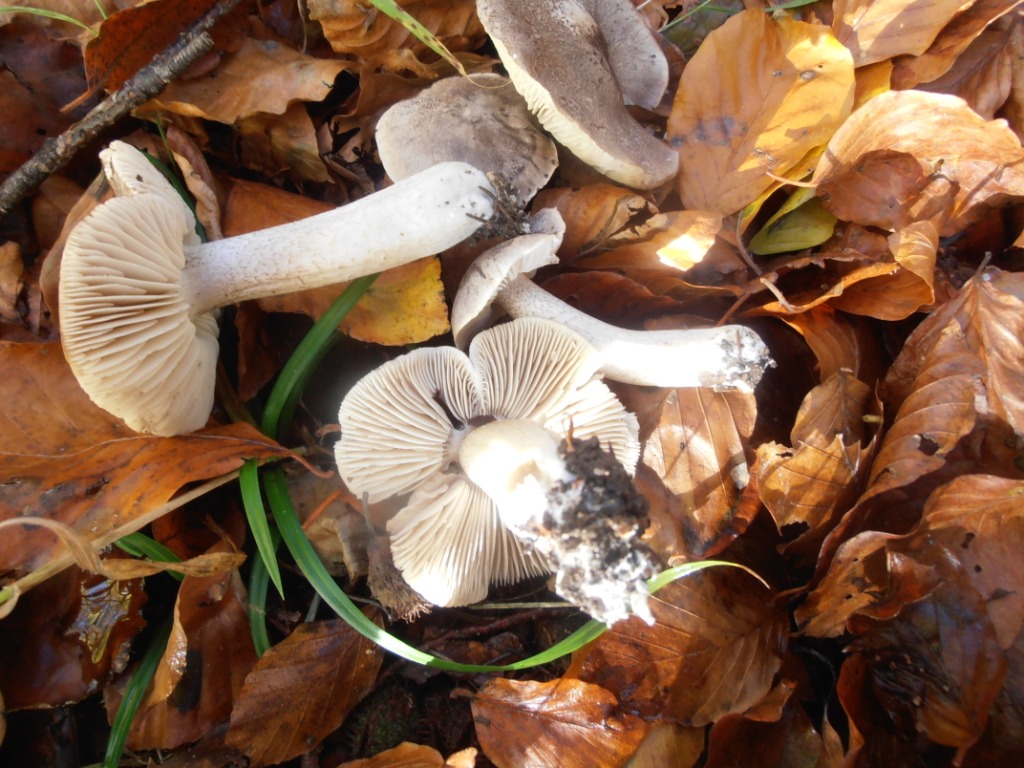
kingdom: Fungi
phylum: Basidiomycota
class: Agaricomycetes
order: Agaricales
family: Tricholomataceae
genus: Tricholoma
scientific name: Tricholoma orirubens
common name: rødbladet ridderhat
